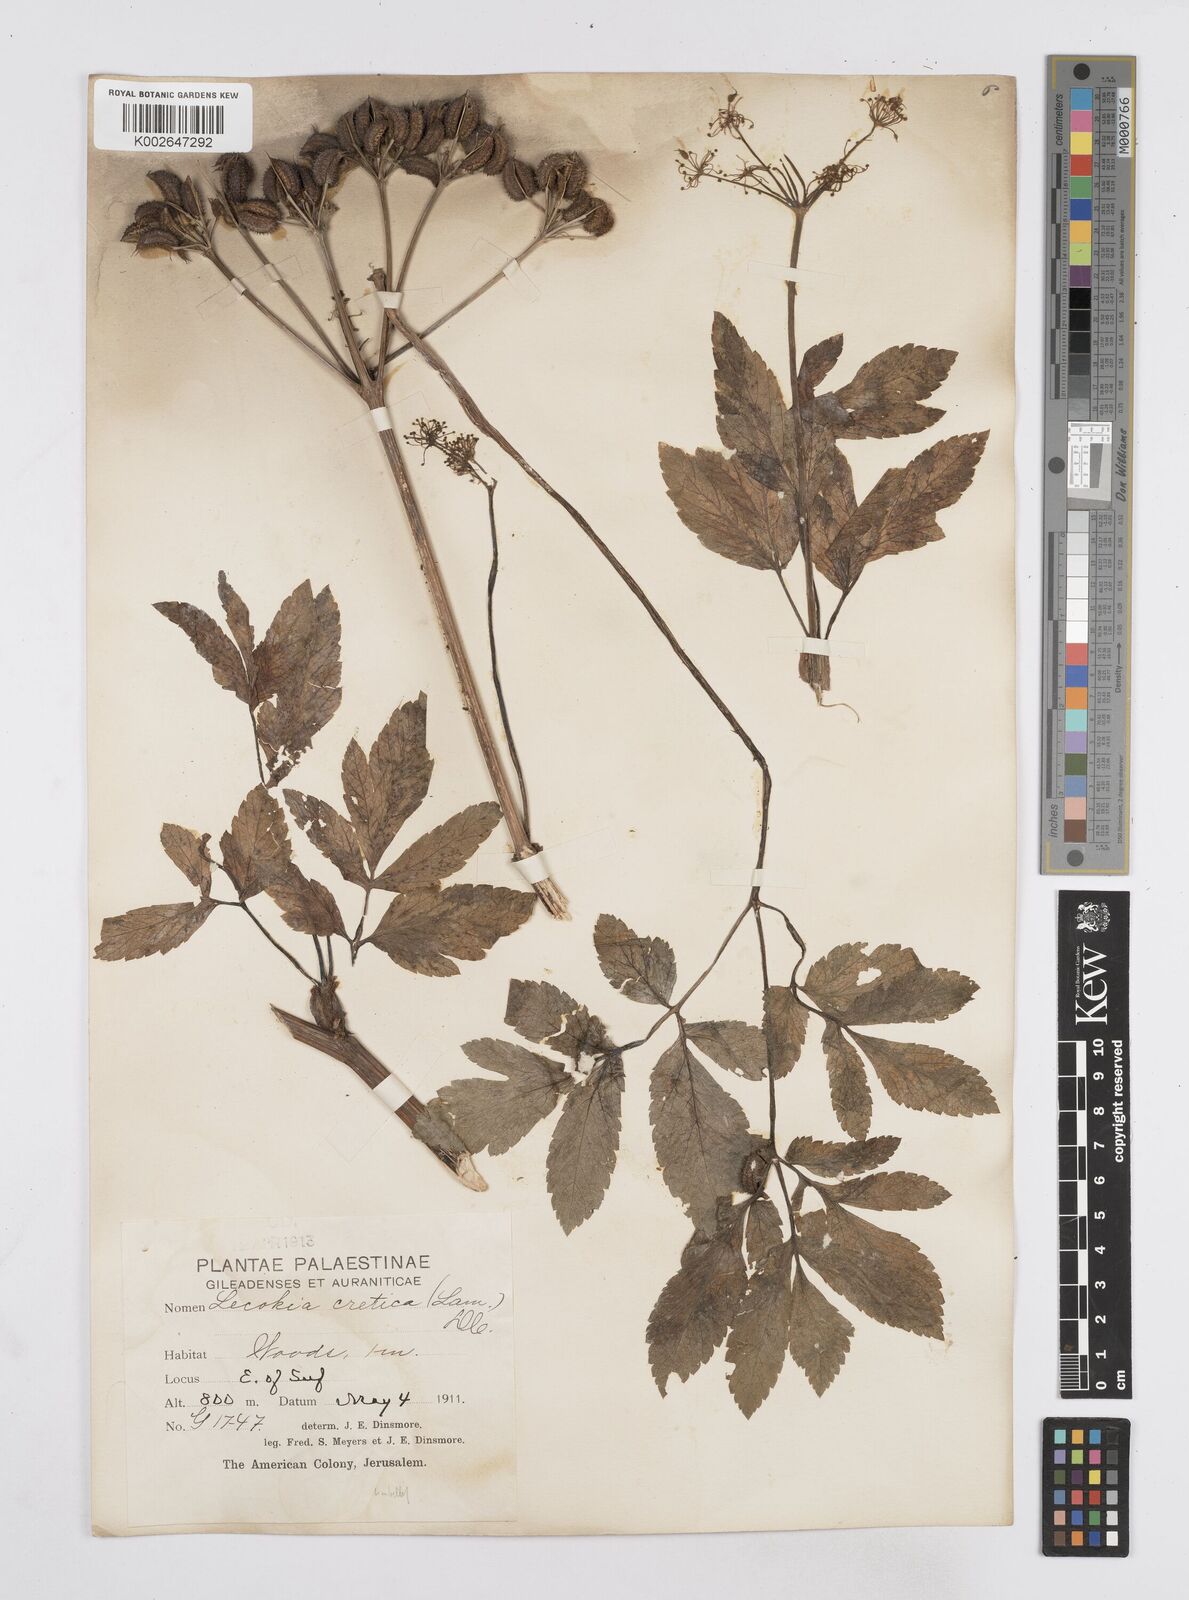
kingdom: Plantae
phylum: Tracheophyta
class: Magnoliopsida
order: Apiales
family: Apiaceae
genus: Lecokia
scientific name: Lecokia cretica
